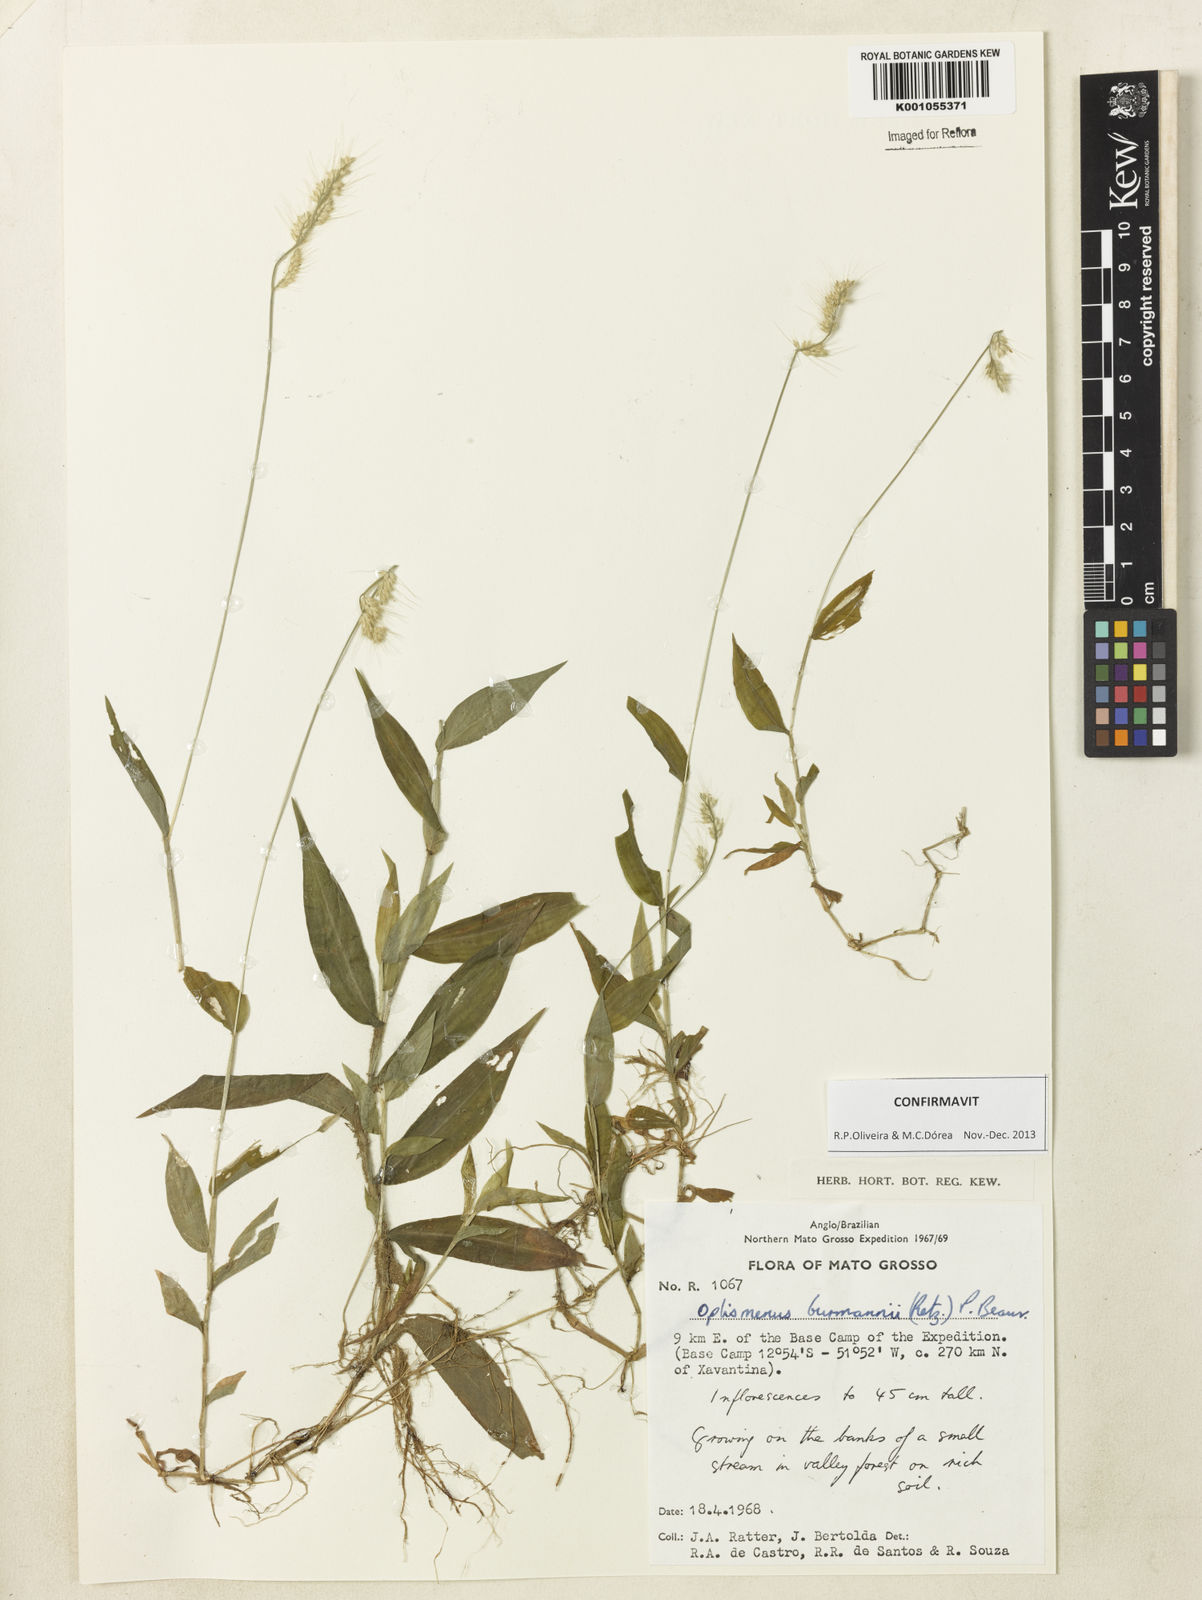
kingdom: Plantae
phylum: Tracheophyta
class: Liliopsida
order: Poales
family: Poaceae
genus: Oplismenus
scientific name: Oplismenus burmanni
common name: Burmann's basketgrass
